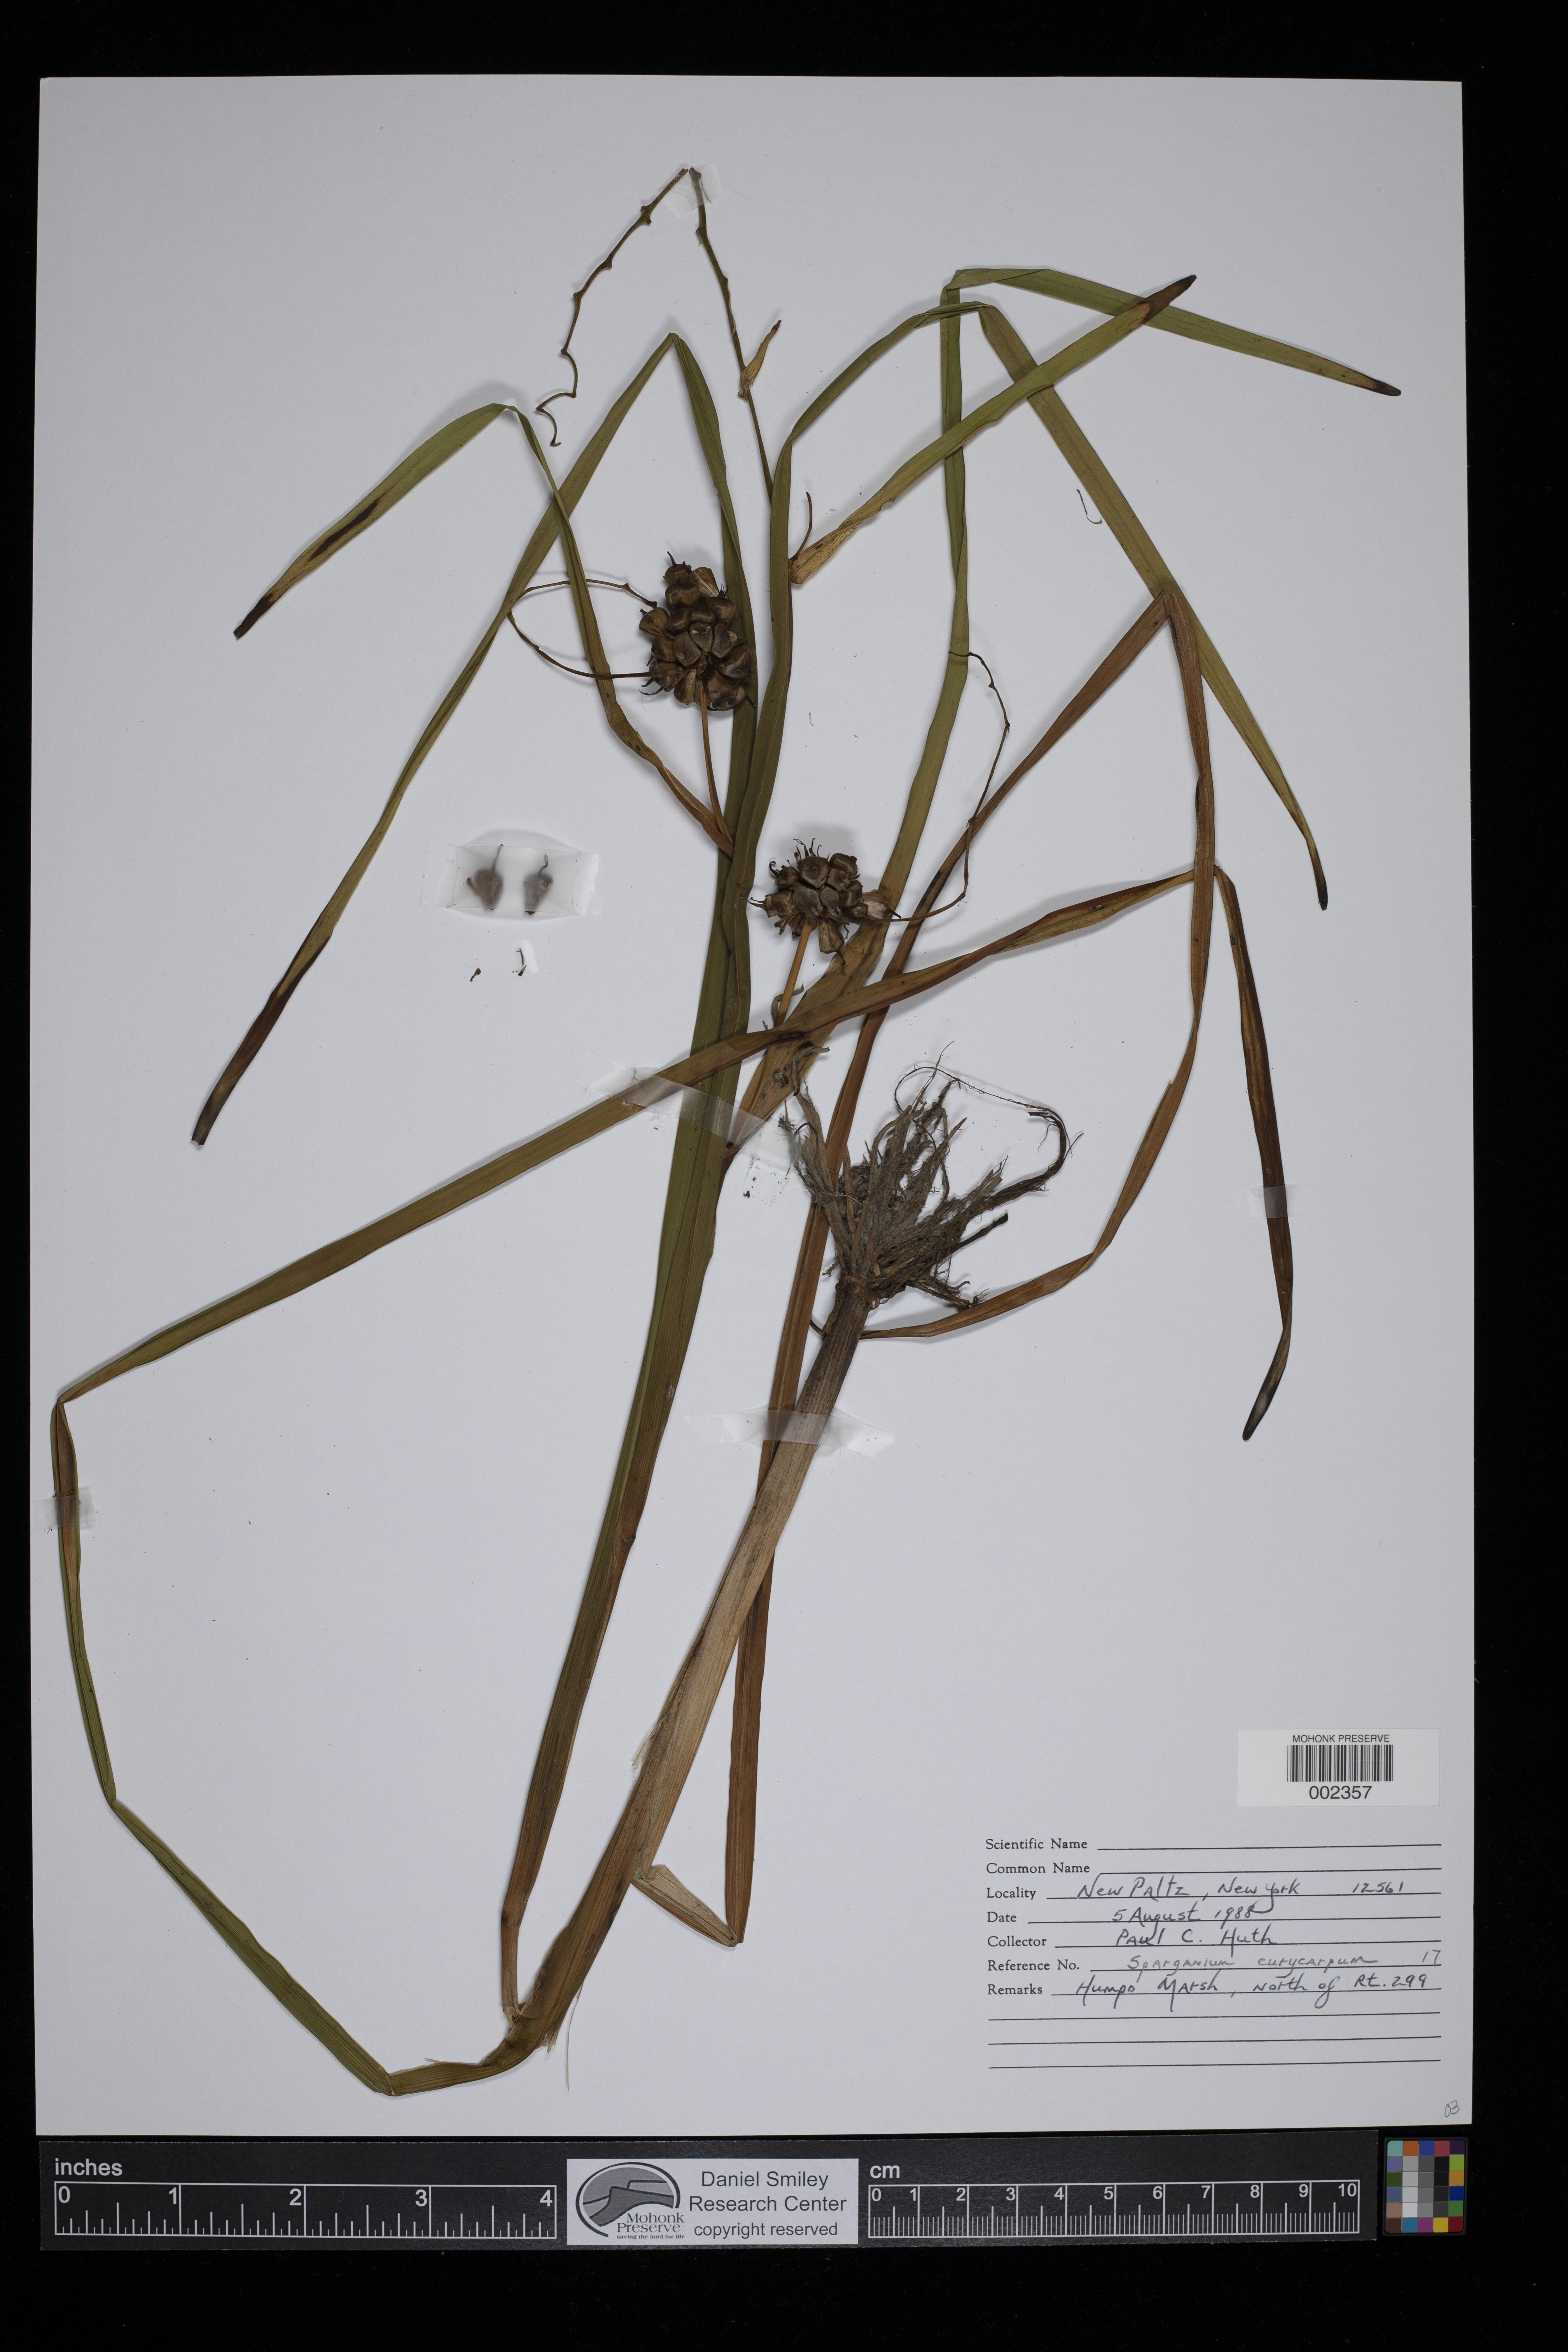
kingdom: Plantae
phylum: Tracheophyta
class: Liliopsida
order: Poales
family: Typhaceae
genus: Sparganium
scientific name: Sparganium eurycarpum
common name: Broad-fruited burreed
